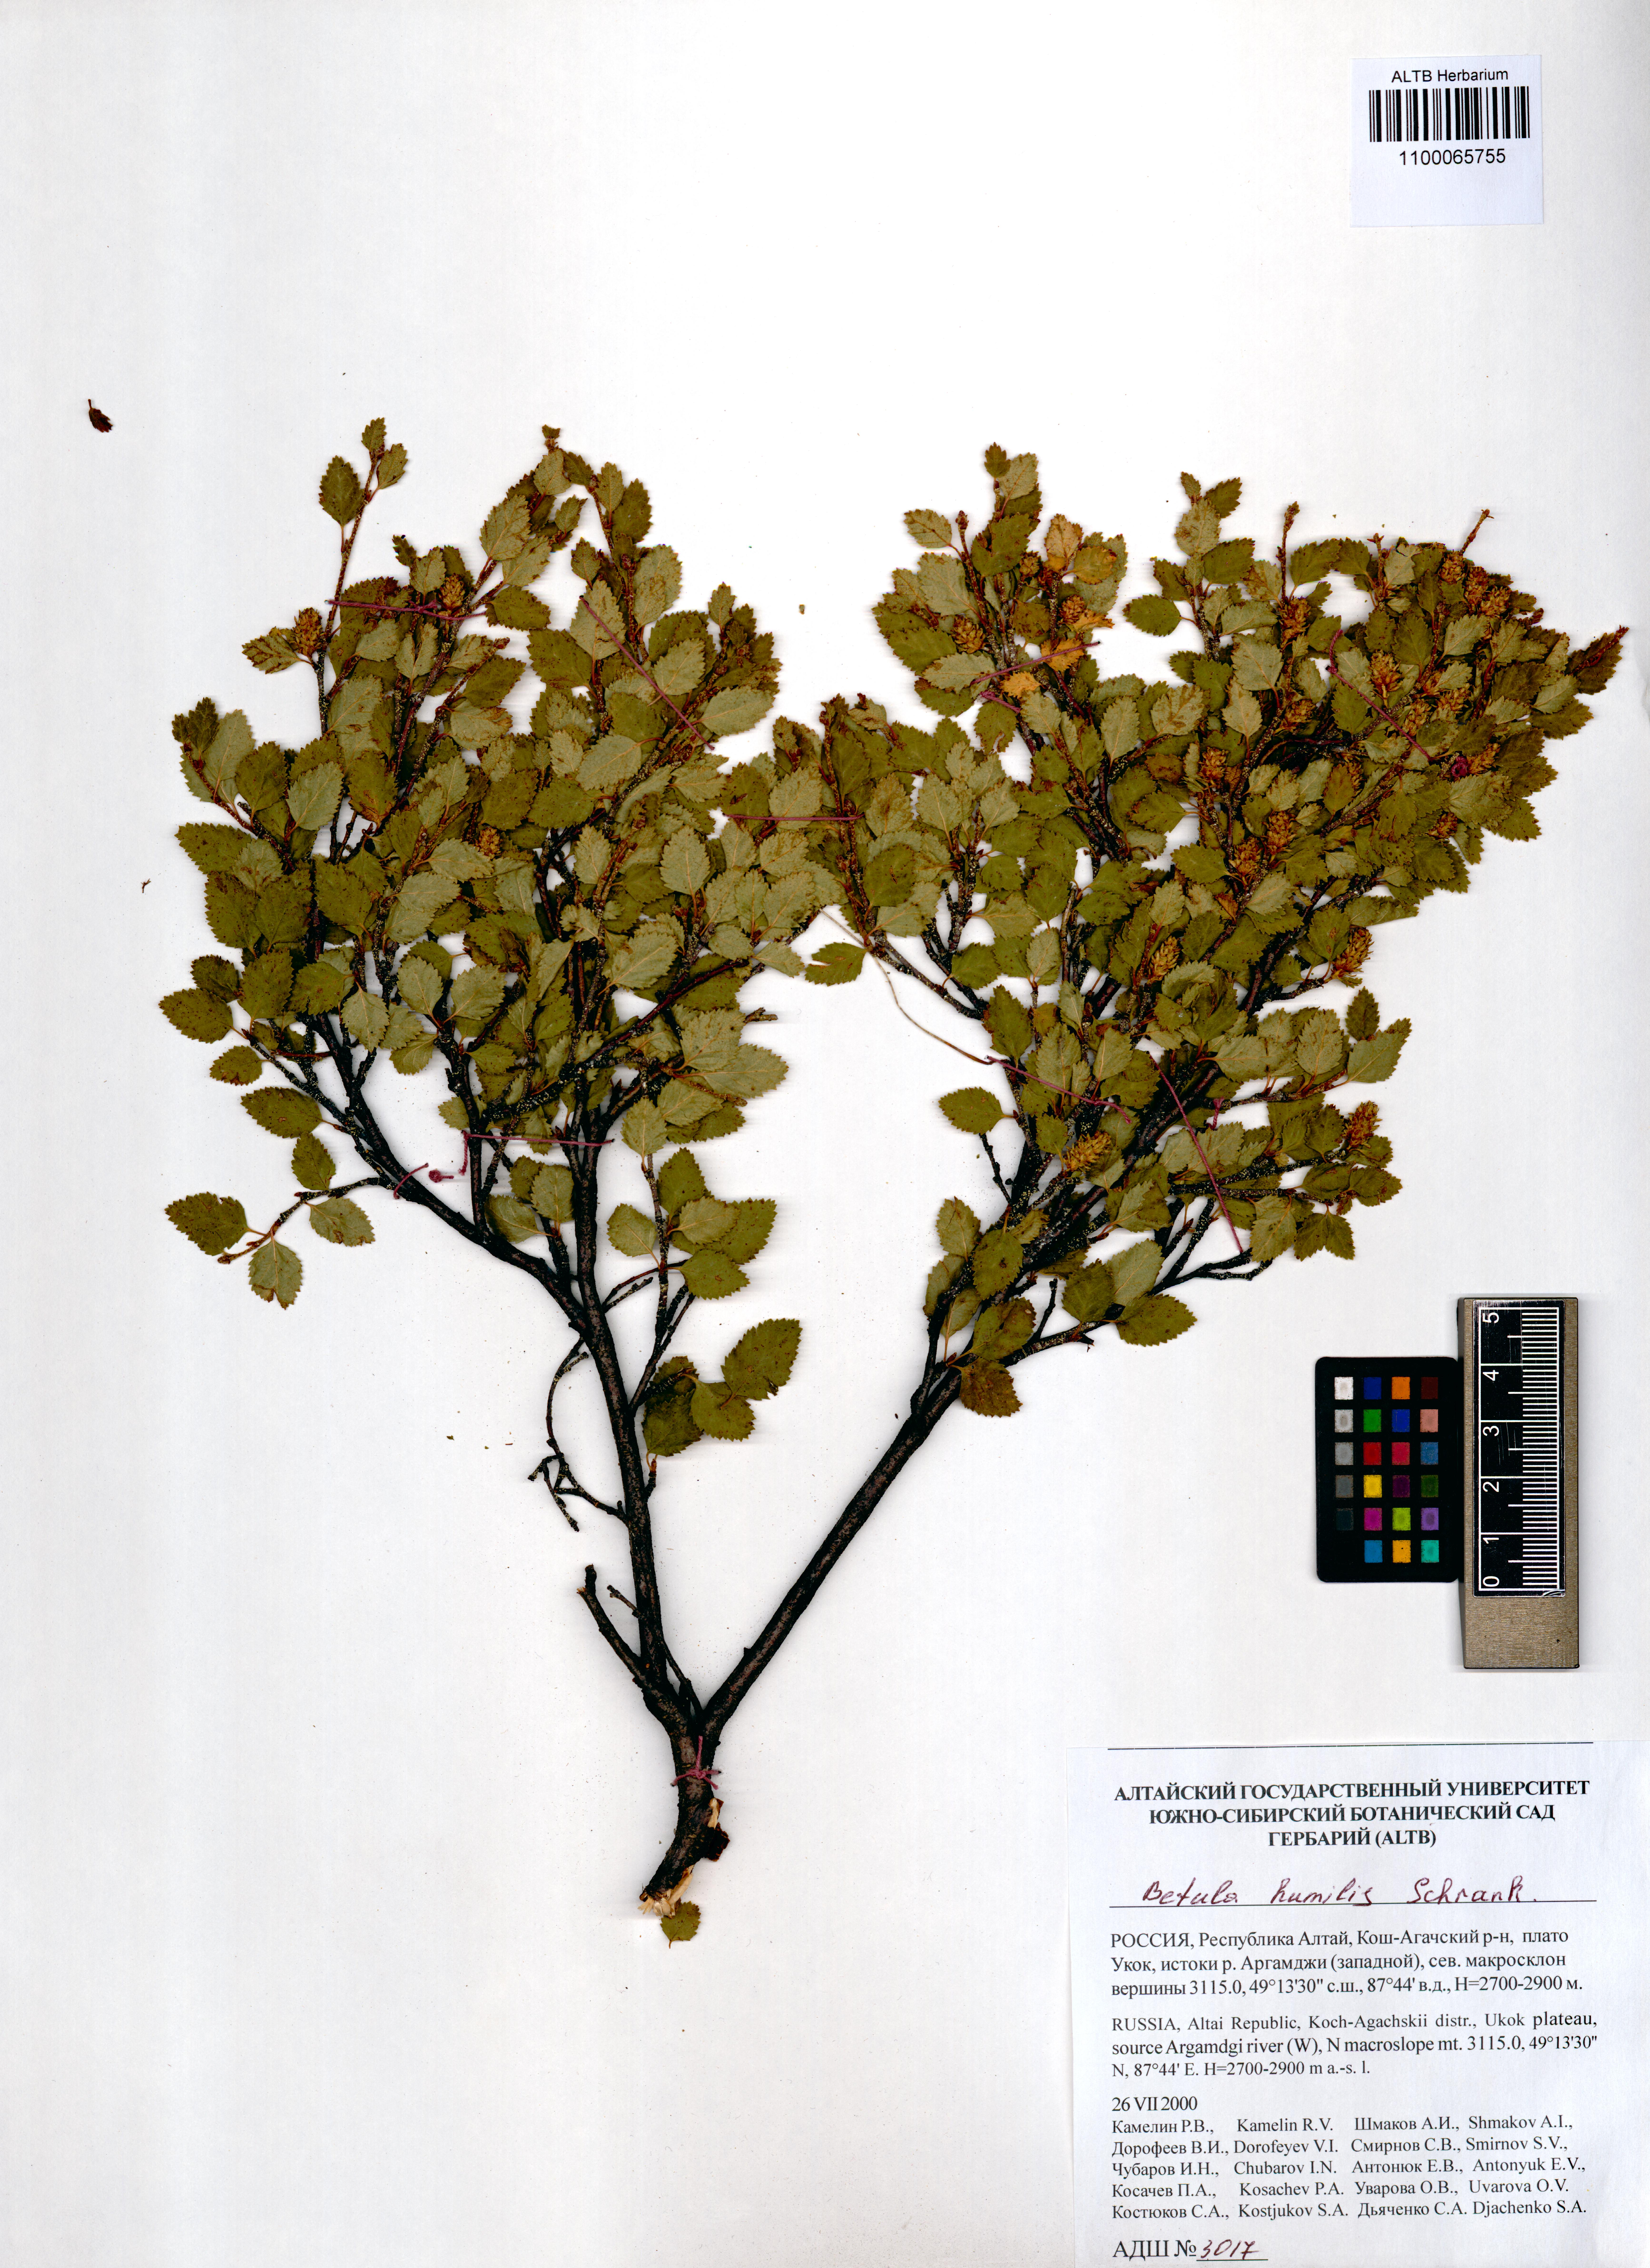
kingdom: Plantae
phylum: Tracheophyta
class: Magnoliopsida
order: Fagales
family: Betulaceae
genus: Betula
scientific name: Betula humilis
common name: Shrubby birch
